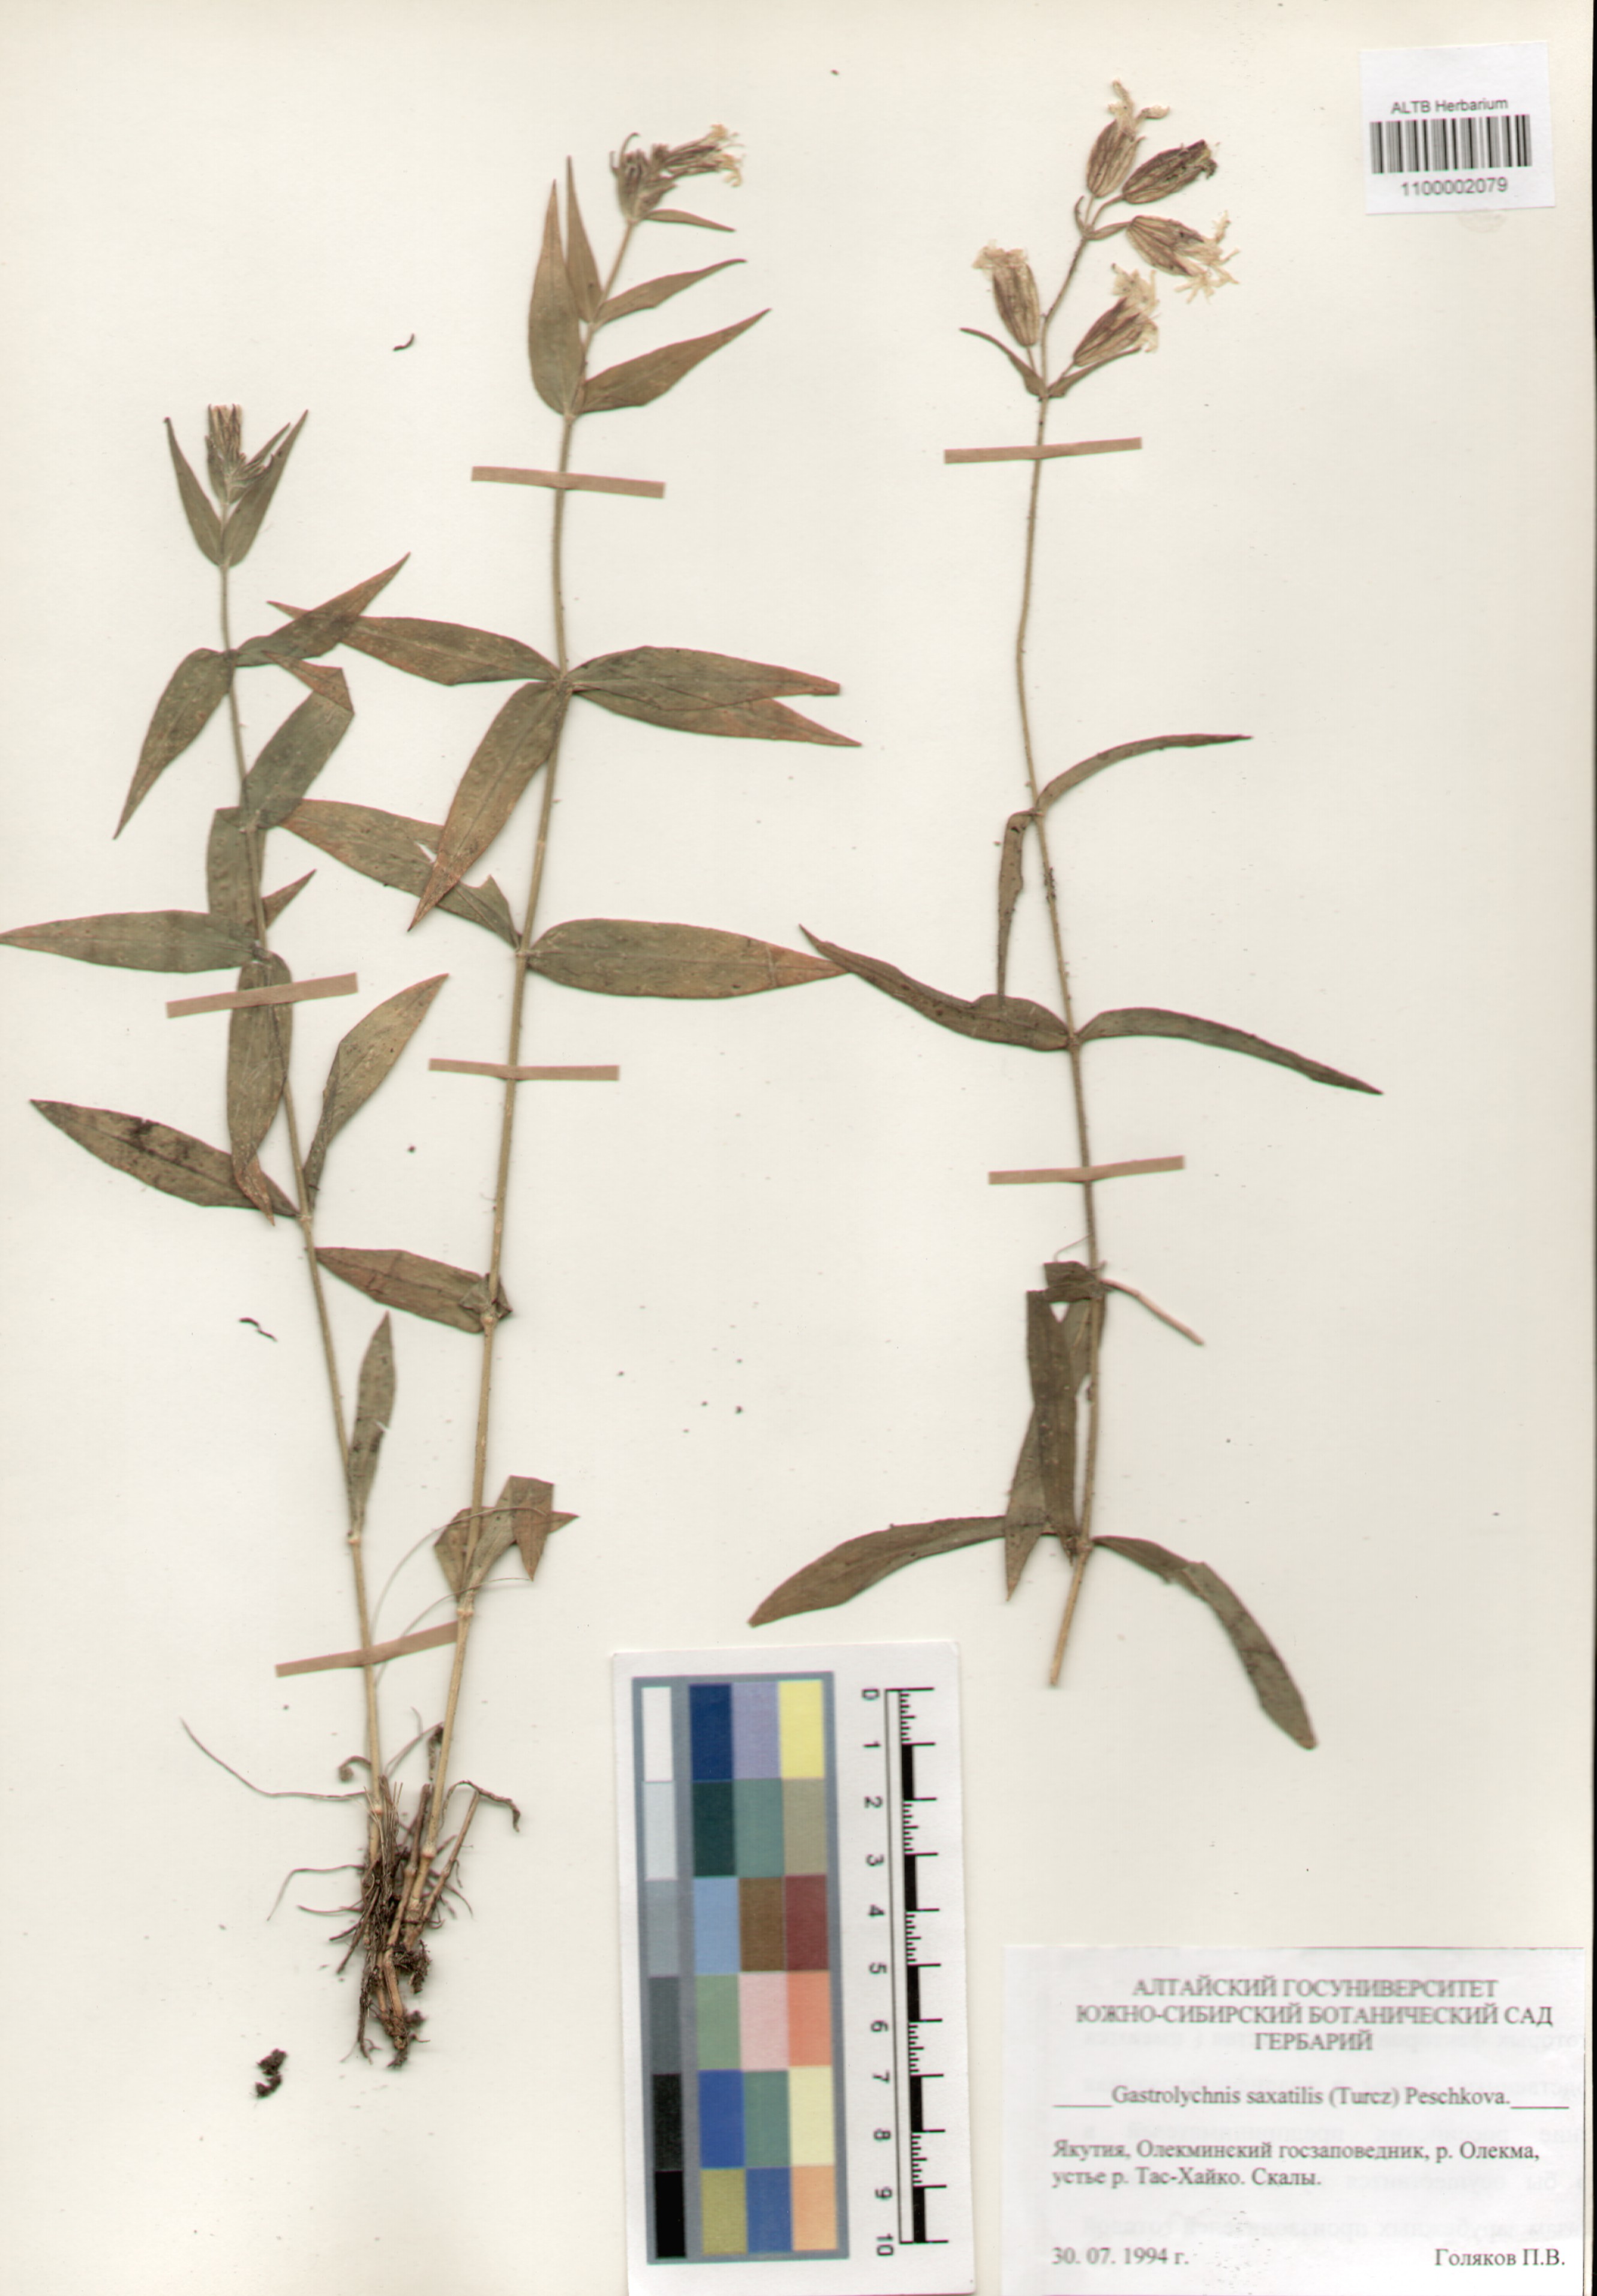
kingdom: Plantae
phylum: Tracheophyta
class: Magnoliopsida
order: Caryophyllales
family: Caryophyllaceae
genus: Silene
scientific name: Silene tolmatchevii
